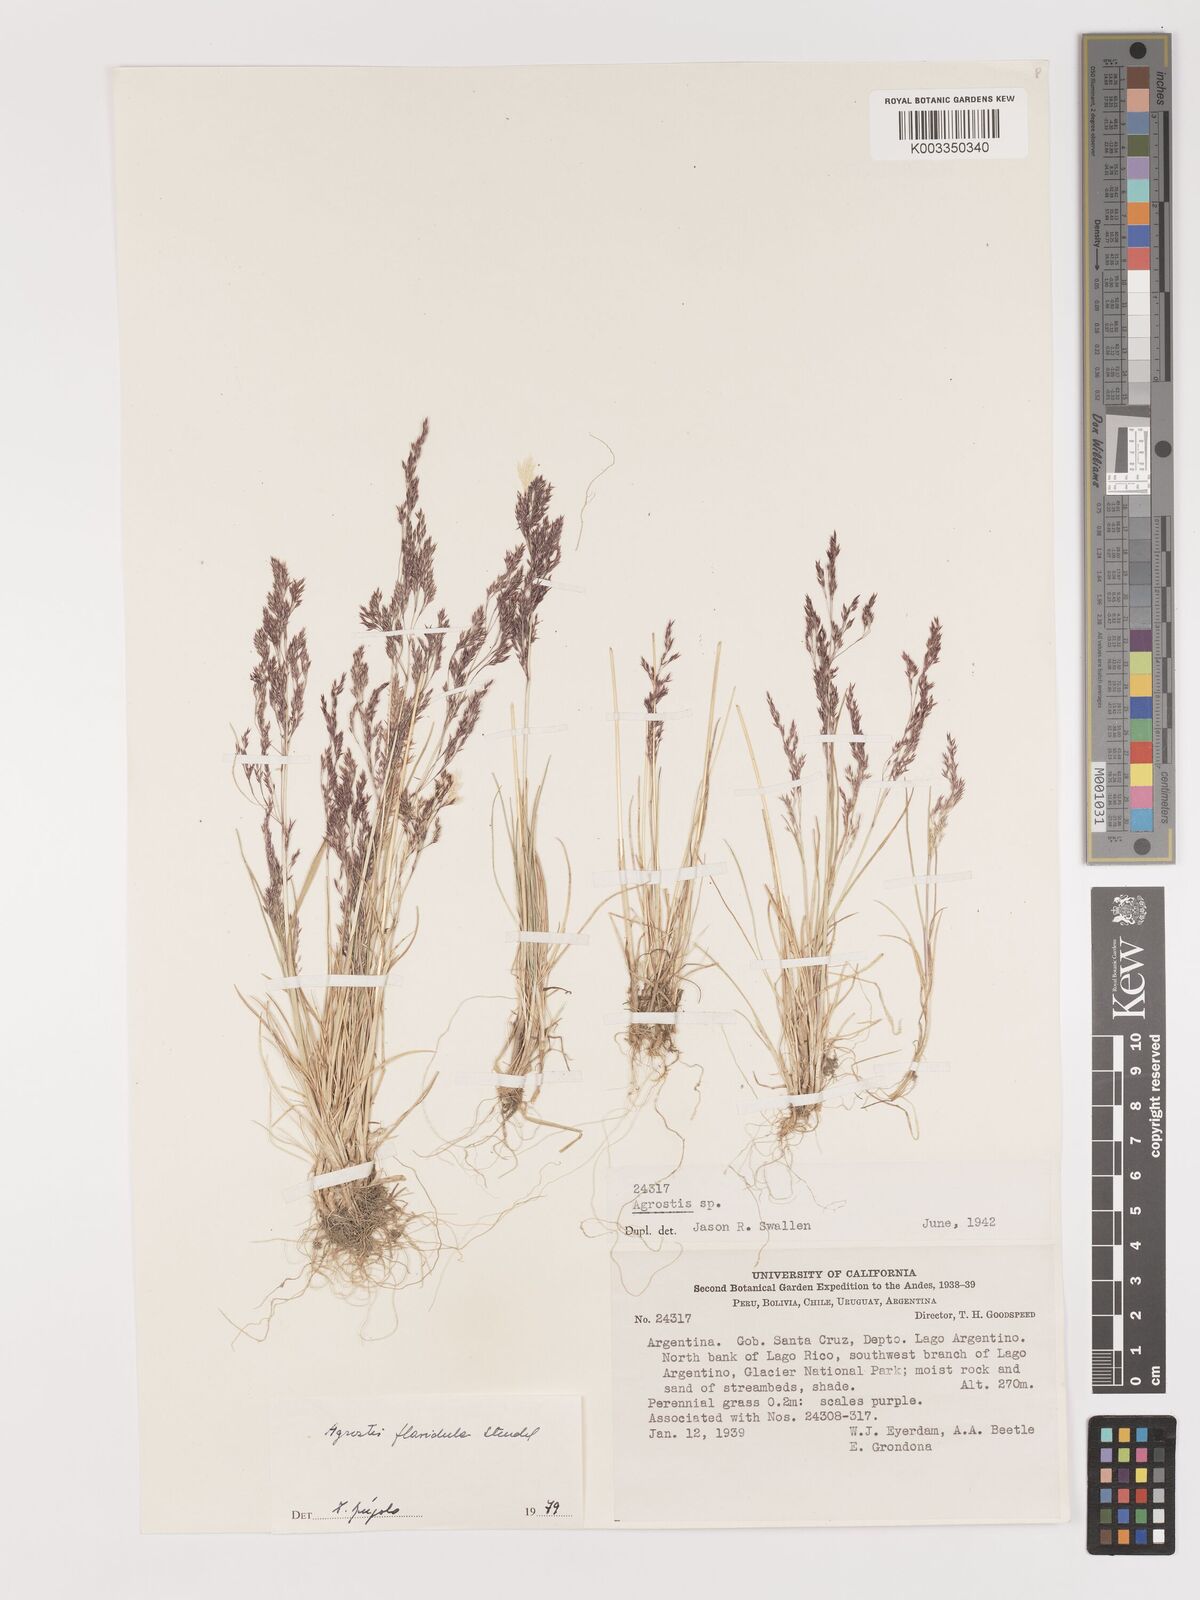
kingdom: Plantae
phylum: Tracheophyta
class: Liliopsida
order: Poales
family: Poaceae
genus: Agrostis
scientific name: Agrostis
